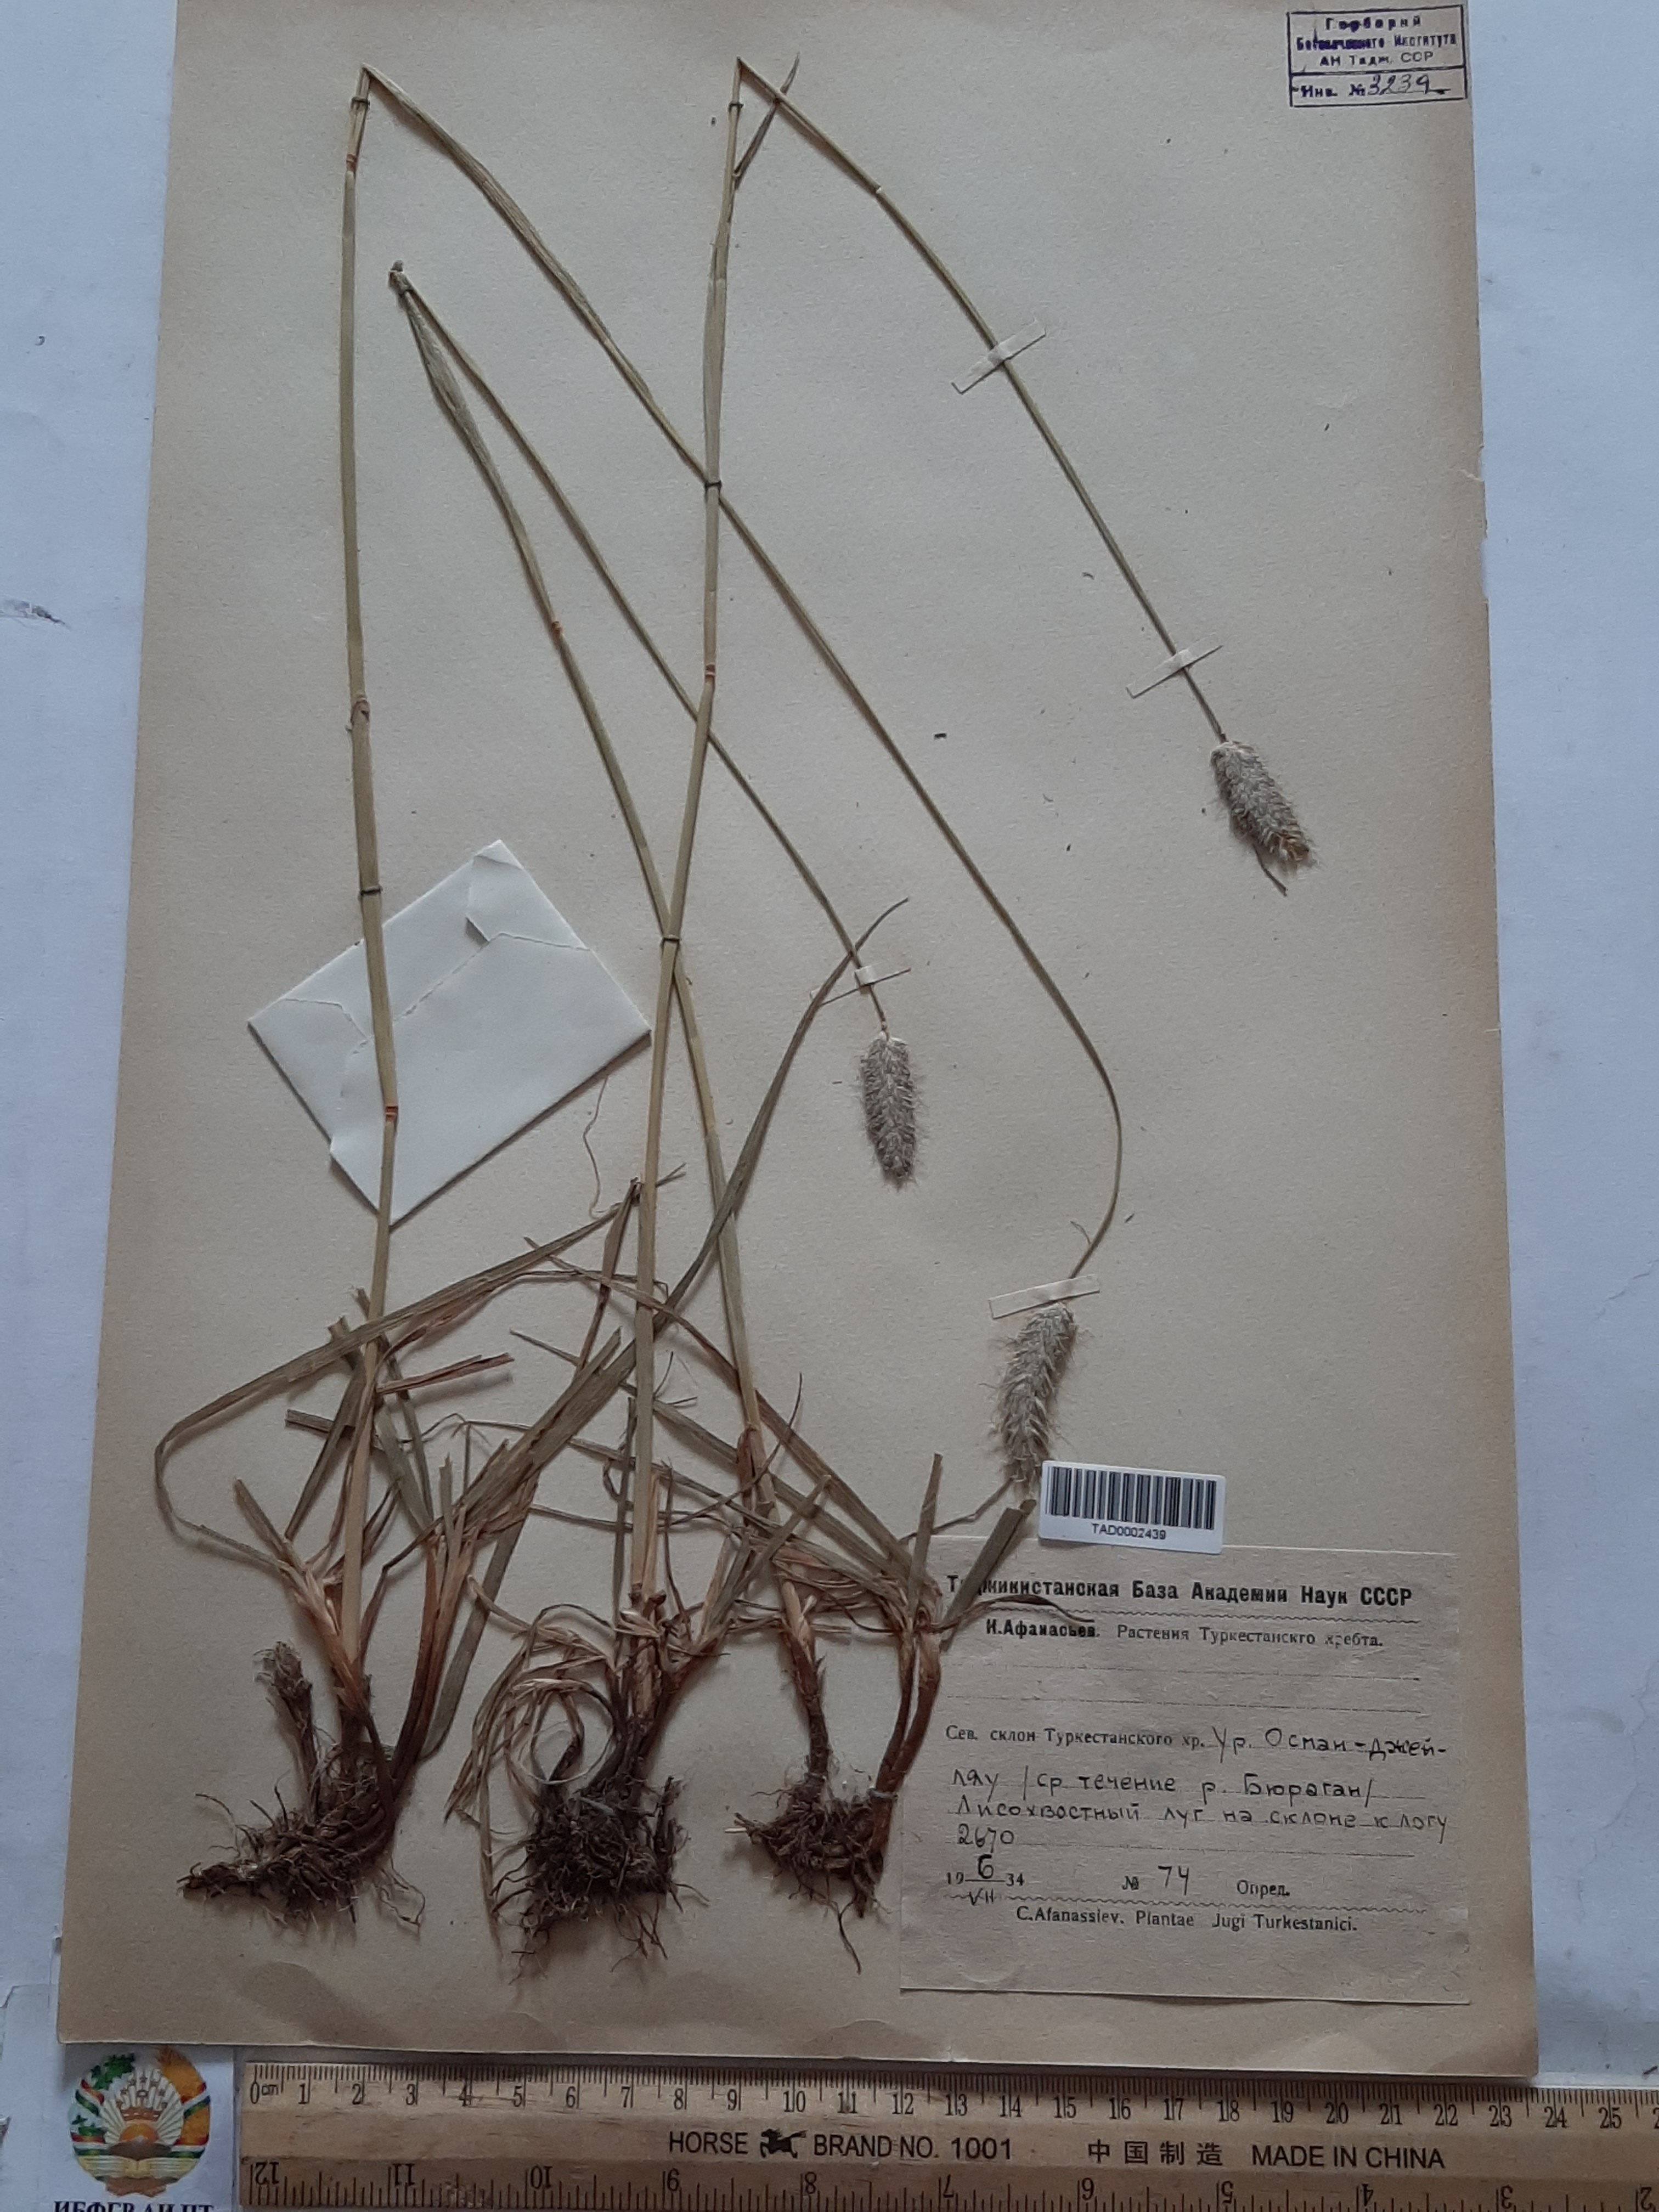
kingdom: Plantae
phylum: Tracheophyta
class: Liliopsida
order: Poales
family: Poaceae
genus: Alopecurus
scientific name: Alopecurus himalaicus
